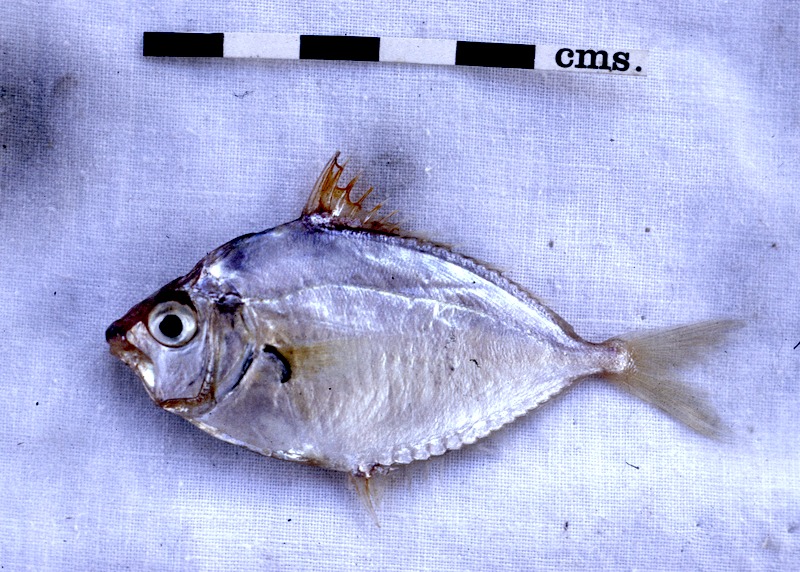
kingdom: Animalia
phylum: Chordata
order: Perciformes
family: Leiognathidae
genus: Leiognathus
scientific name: Leiognathus equulus
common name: Common ponyfish
